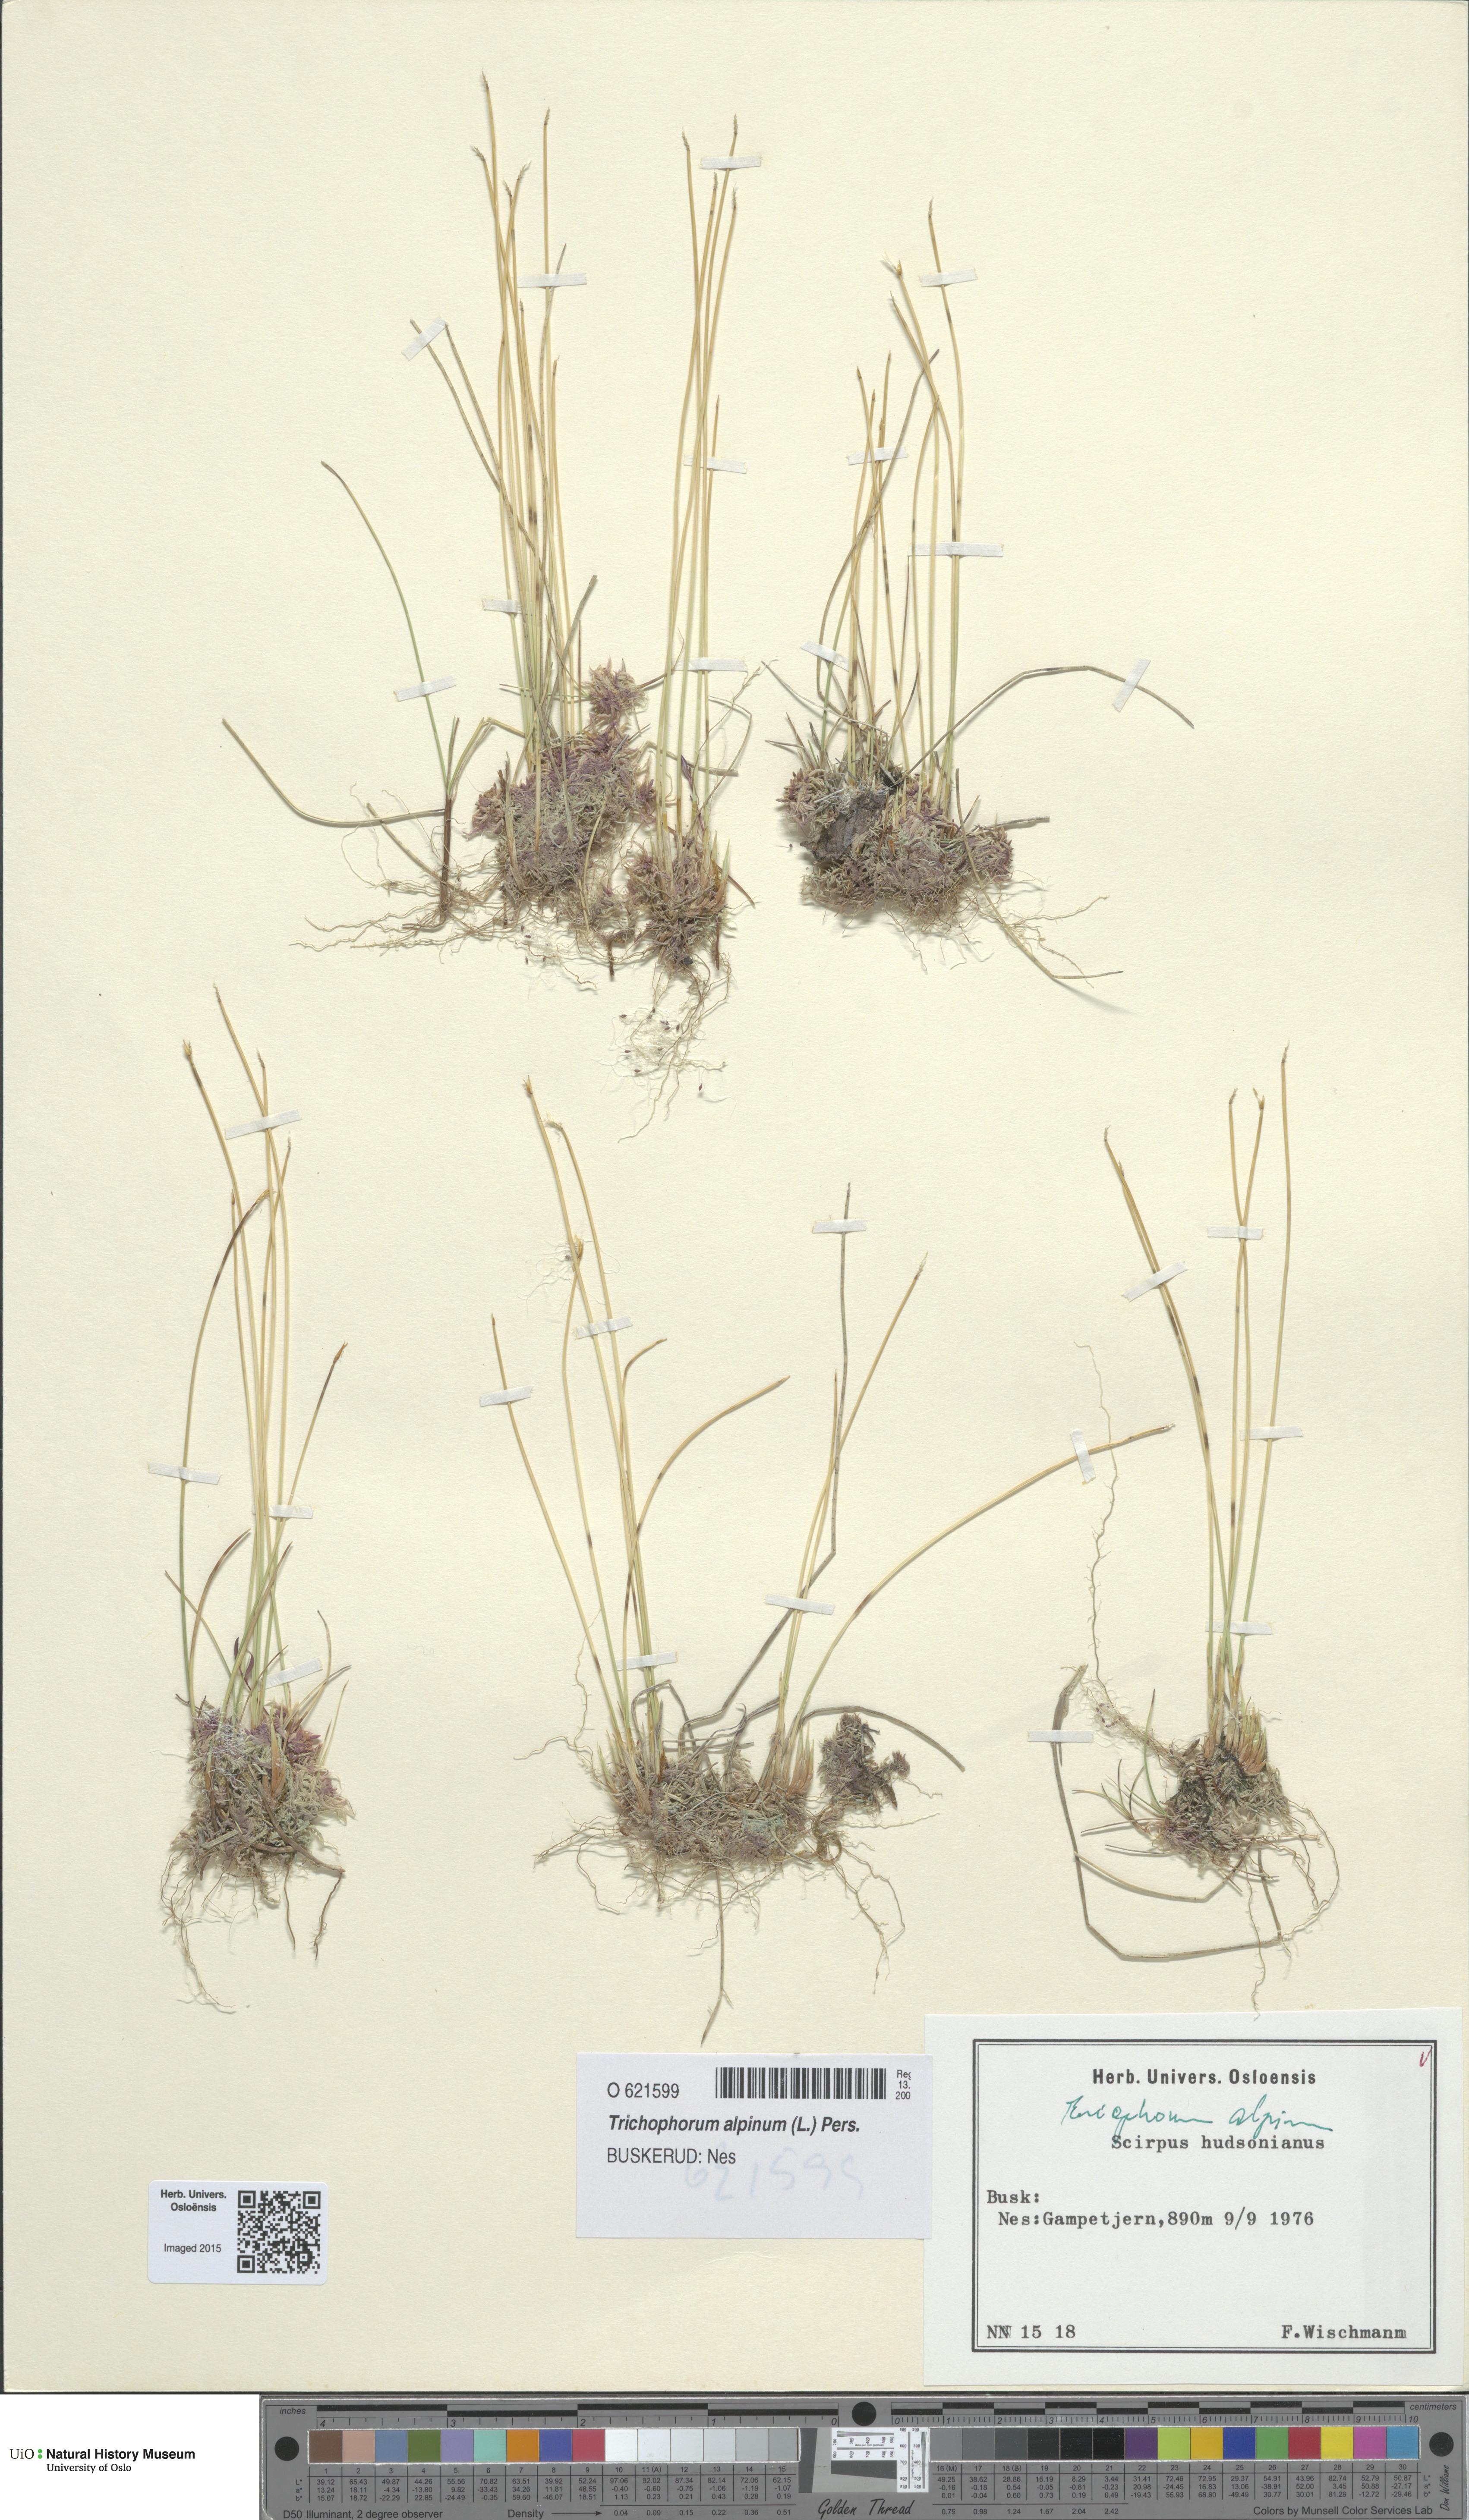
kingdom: Plantae
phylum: Tracheophyta
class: Liliopsida
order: Poales
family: Cyperaceae
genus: Trichophorum
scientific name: Trichophorum alpinum
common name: Alpine bulrush
